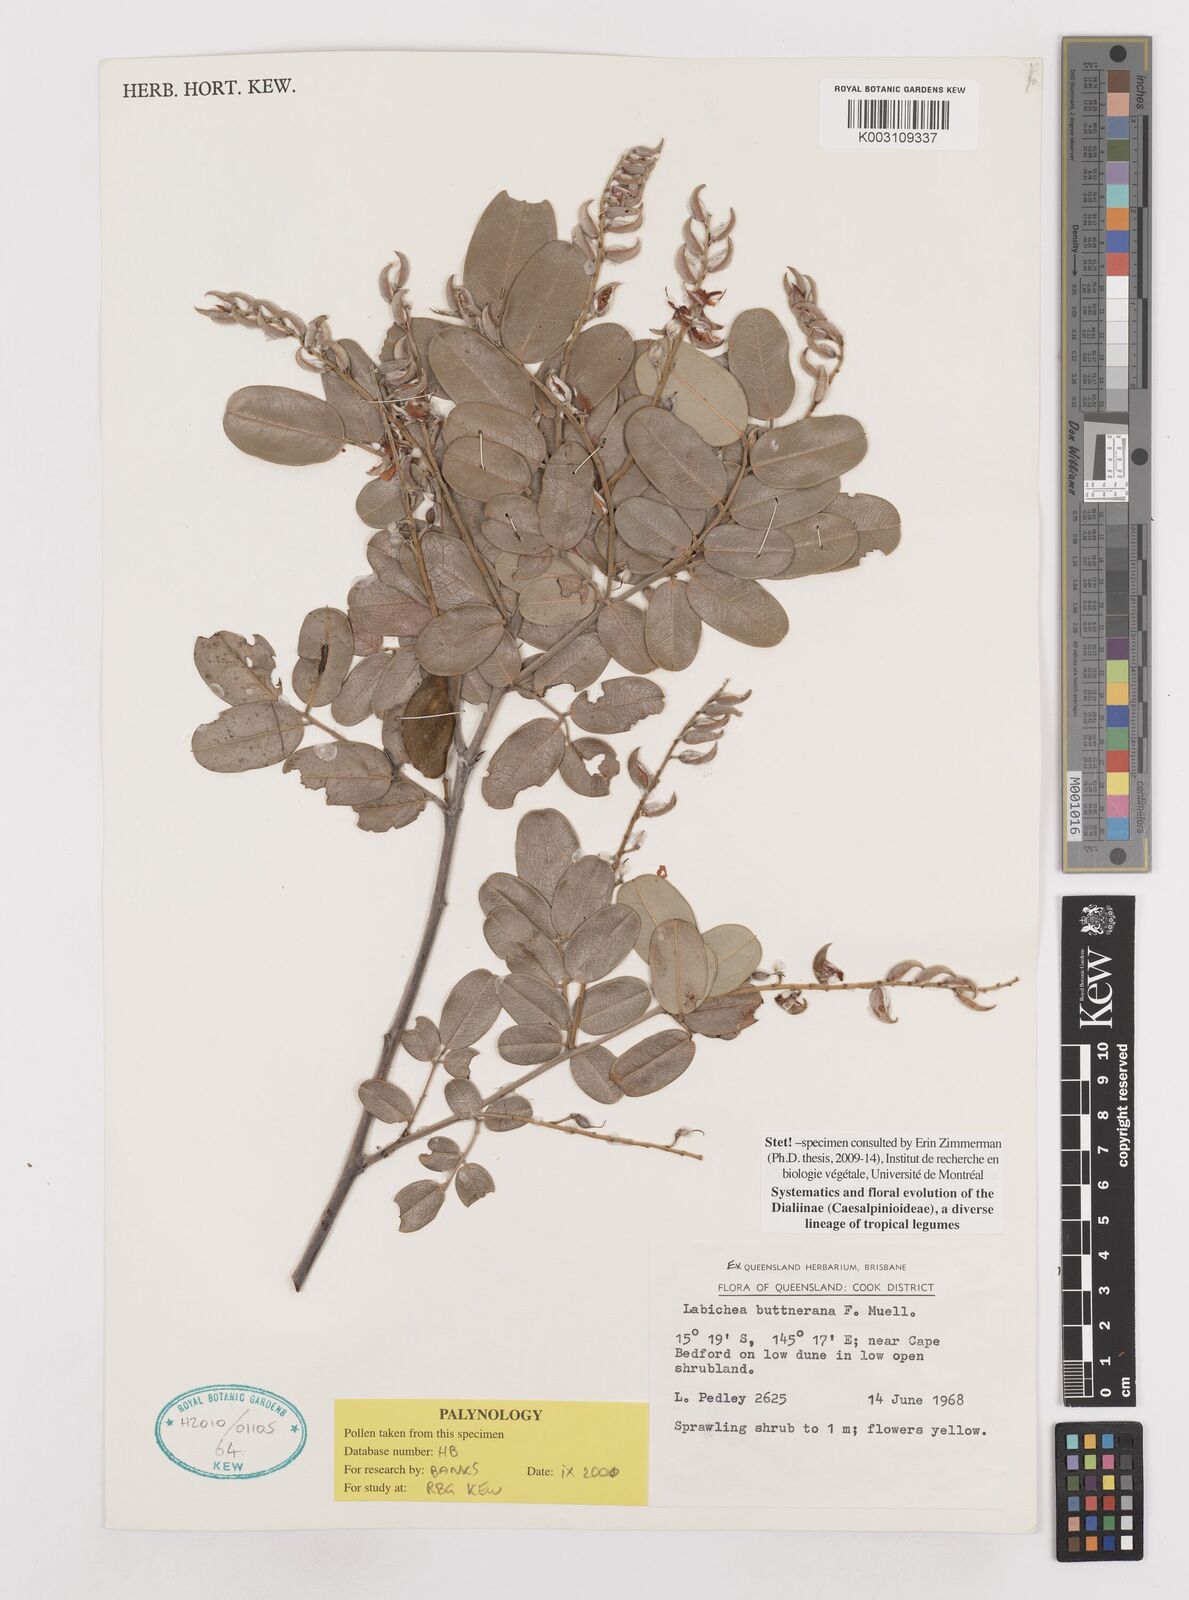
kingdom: Plantae
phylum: Tracheophyta
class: Magnoliopsida
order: Fabales
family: Fabaceae
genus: Labichea
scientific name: Labichea buettneriana
